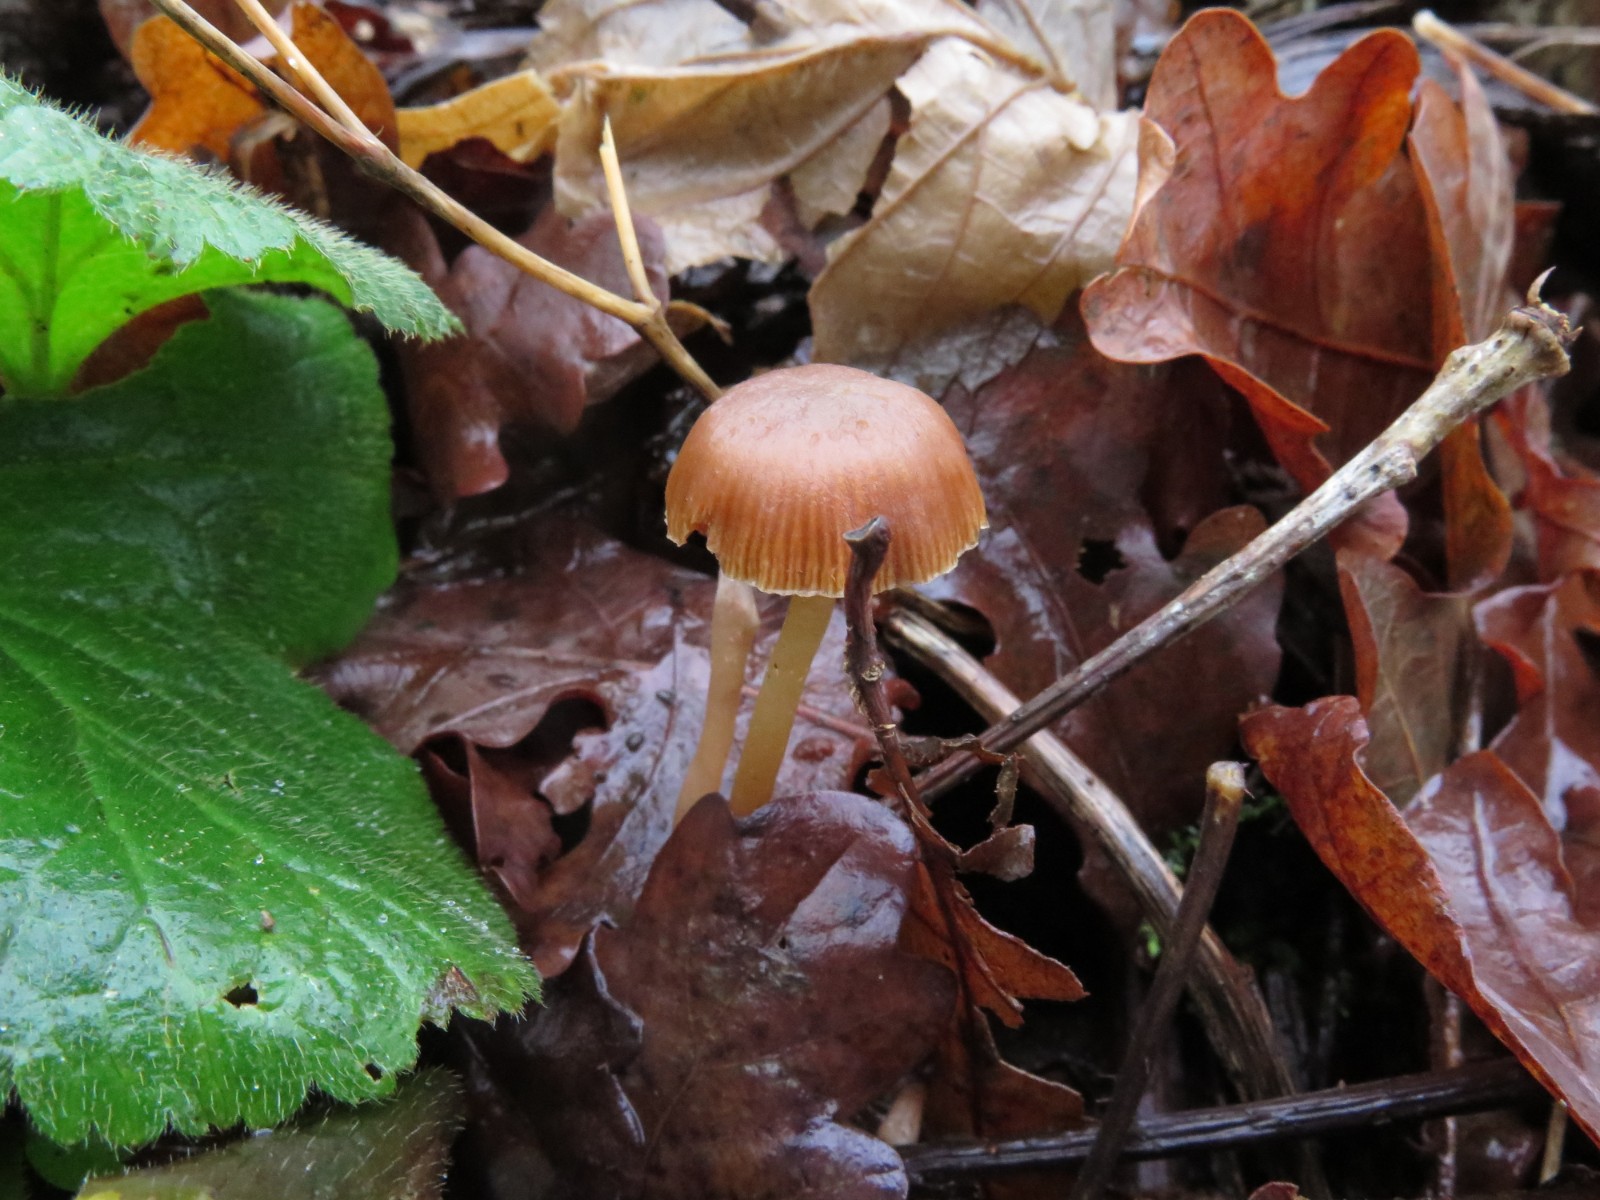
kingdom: Fungi
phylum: Basidiomycota
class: Agaricomycetes
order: Agaricales
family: Tubariaceae
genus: Tubaria
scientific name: Tubaria furfuracea
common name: kliddet fnughat
